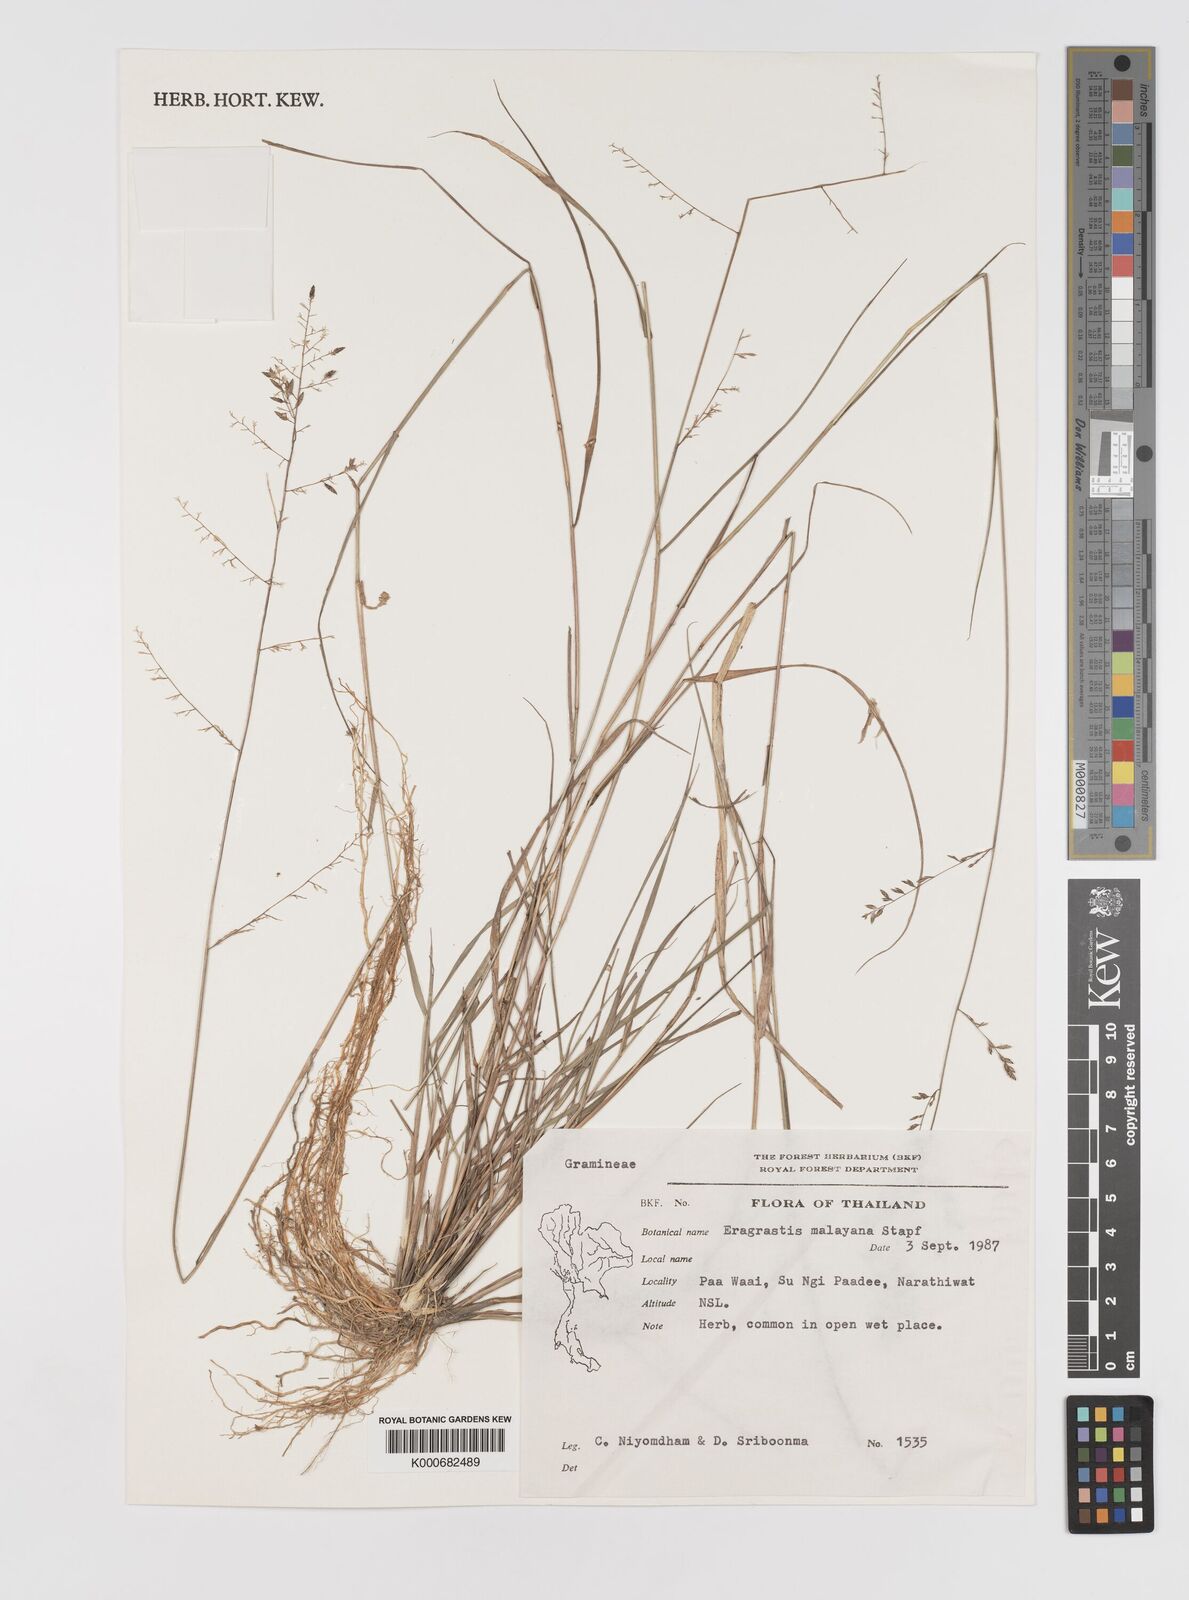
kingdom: Plantae
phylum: Tracheophyta
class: Liliopsida
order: Poales
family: Poaceae
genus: Eragrostis
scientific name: Eragrostis montana
